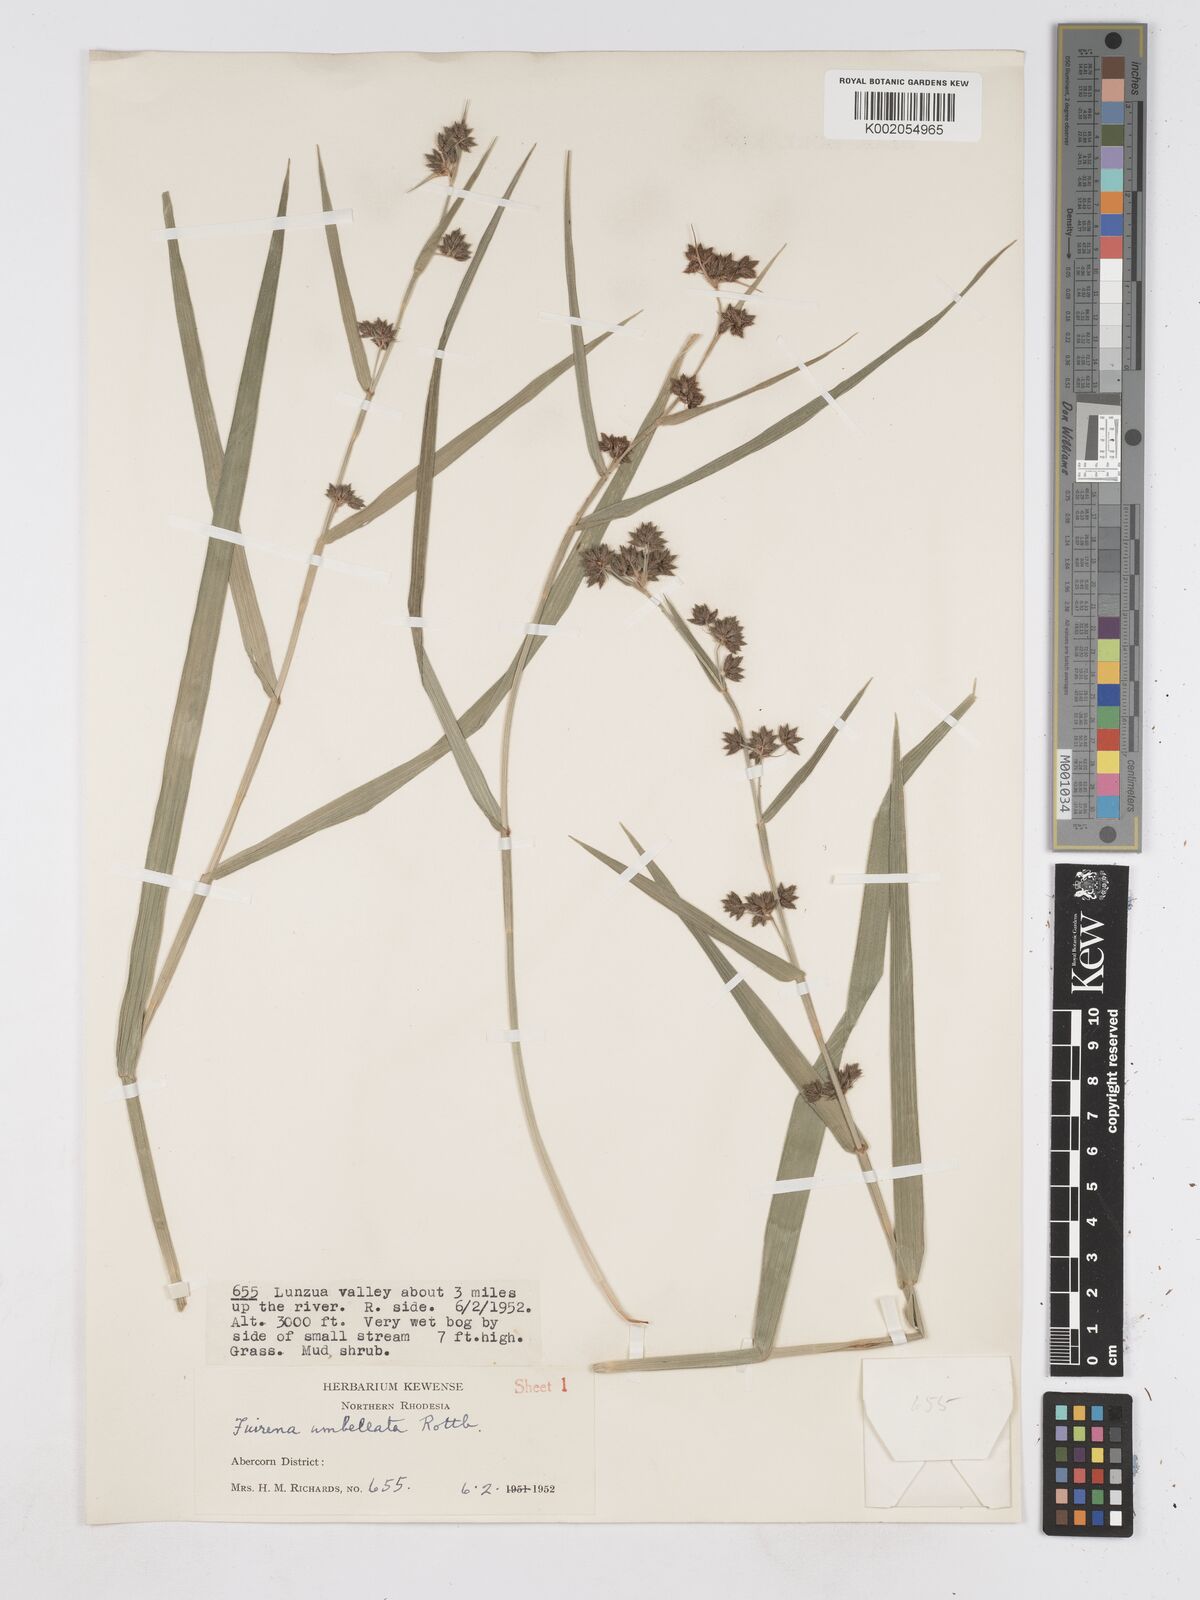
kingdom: Plantae
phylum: Tracheophyta
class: Liliopsida
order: Poales
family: Cyperaceae
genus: Fuirena
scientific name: Fuirena umbellata
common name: Yefen
